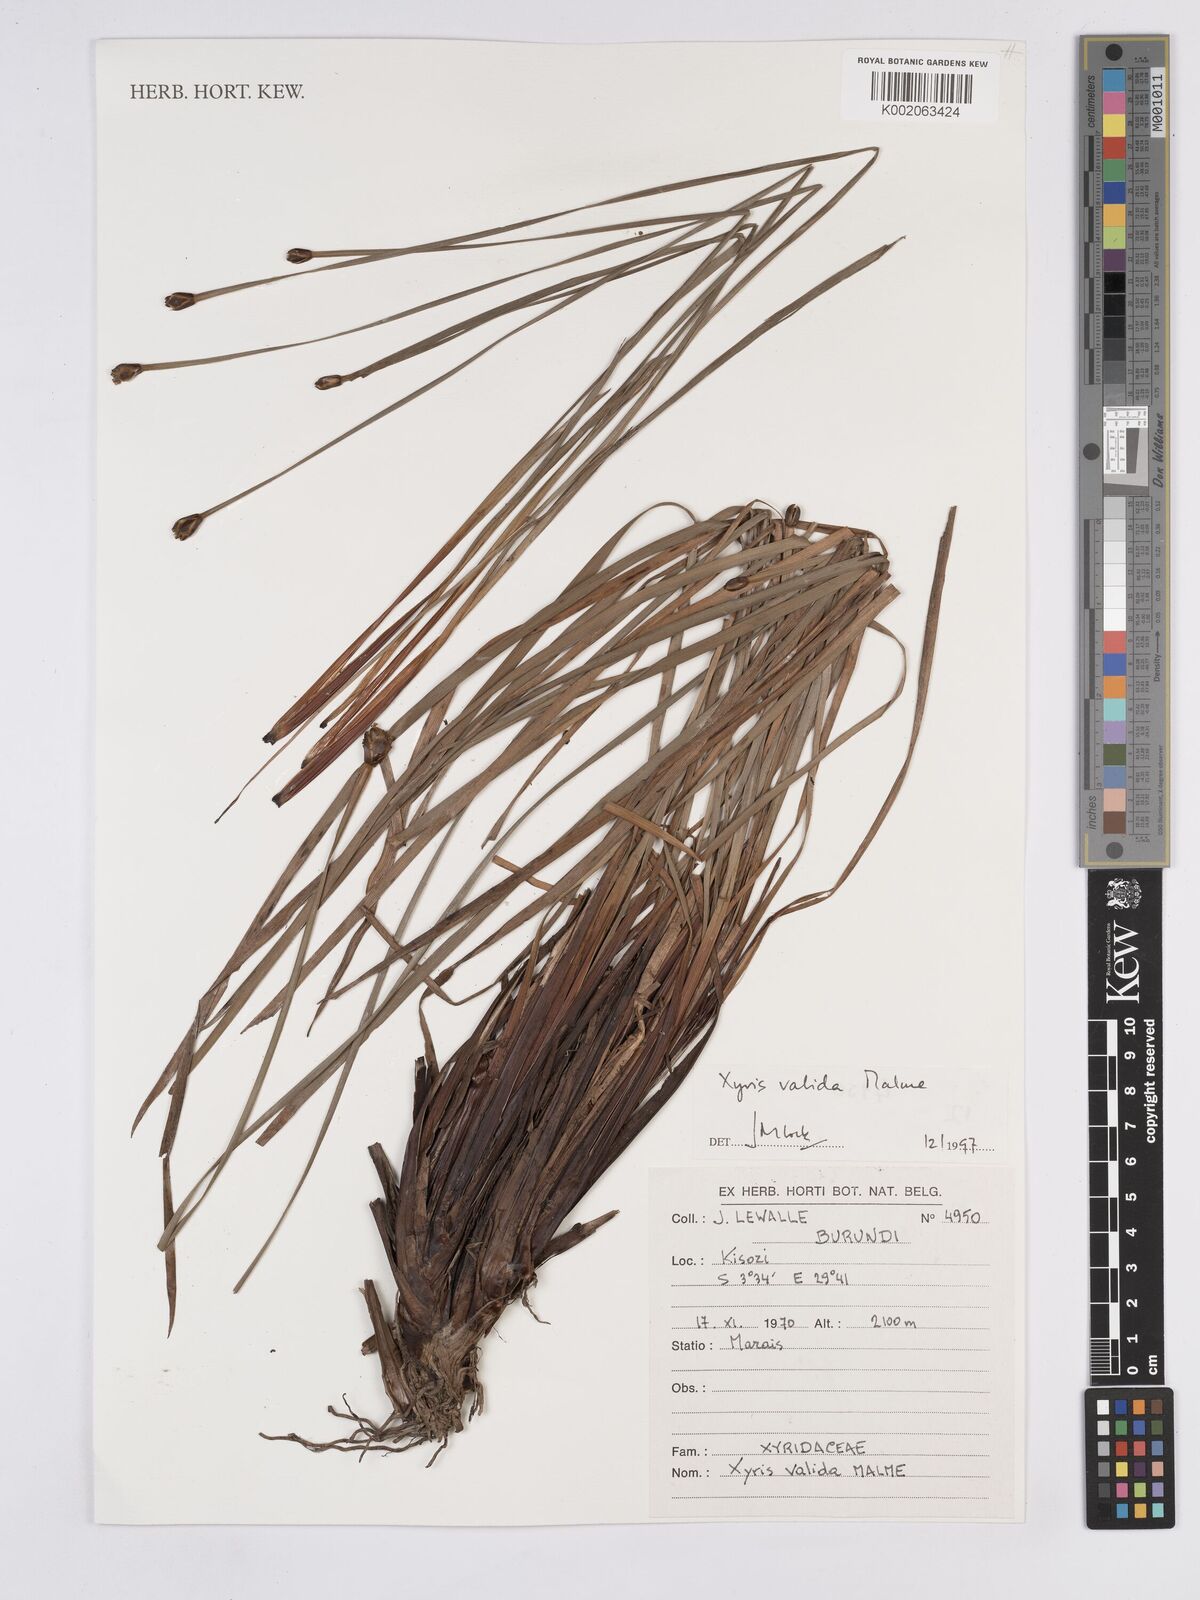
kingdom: Plantae
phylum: Tracheophyta
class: Liliopsida
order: Poales
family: Xyridaceae
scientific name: Xyridaceae
